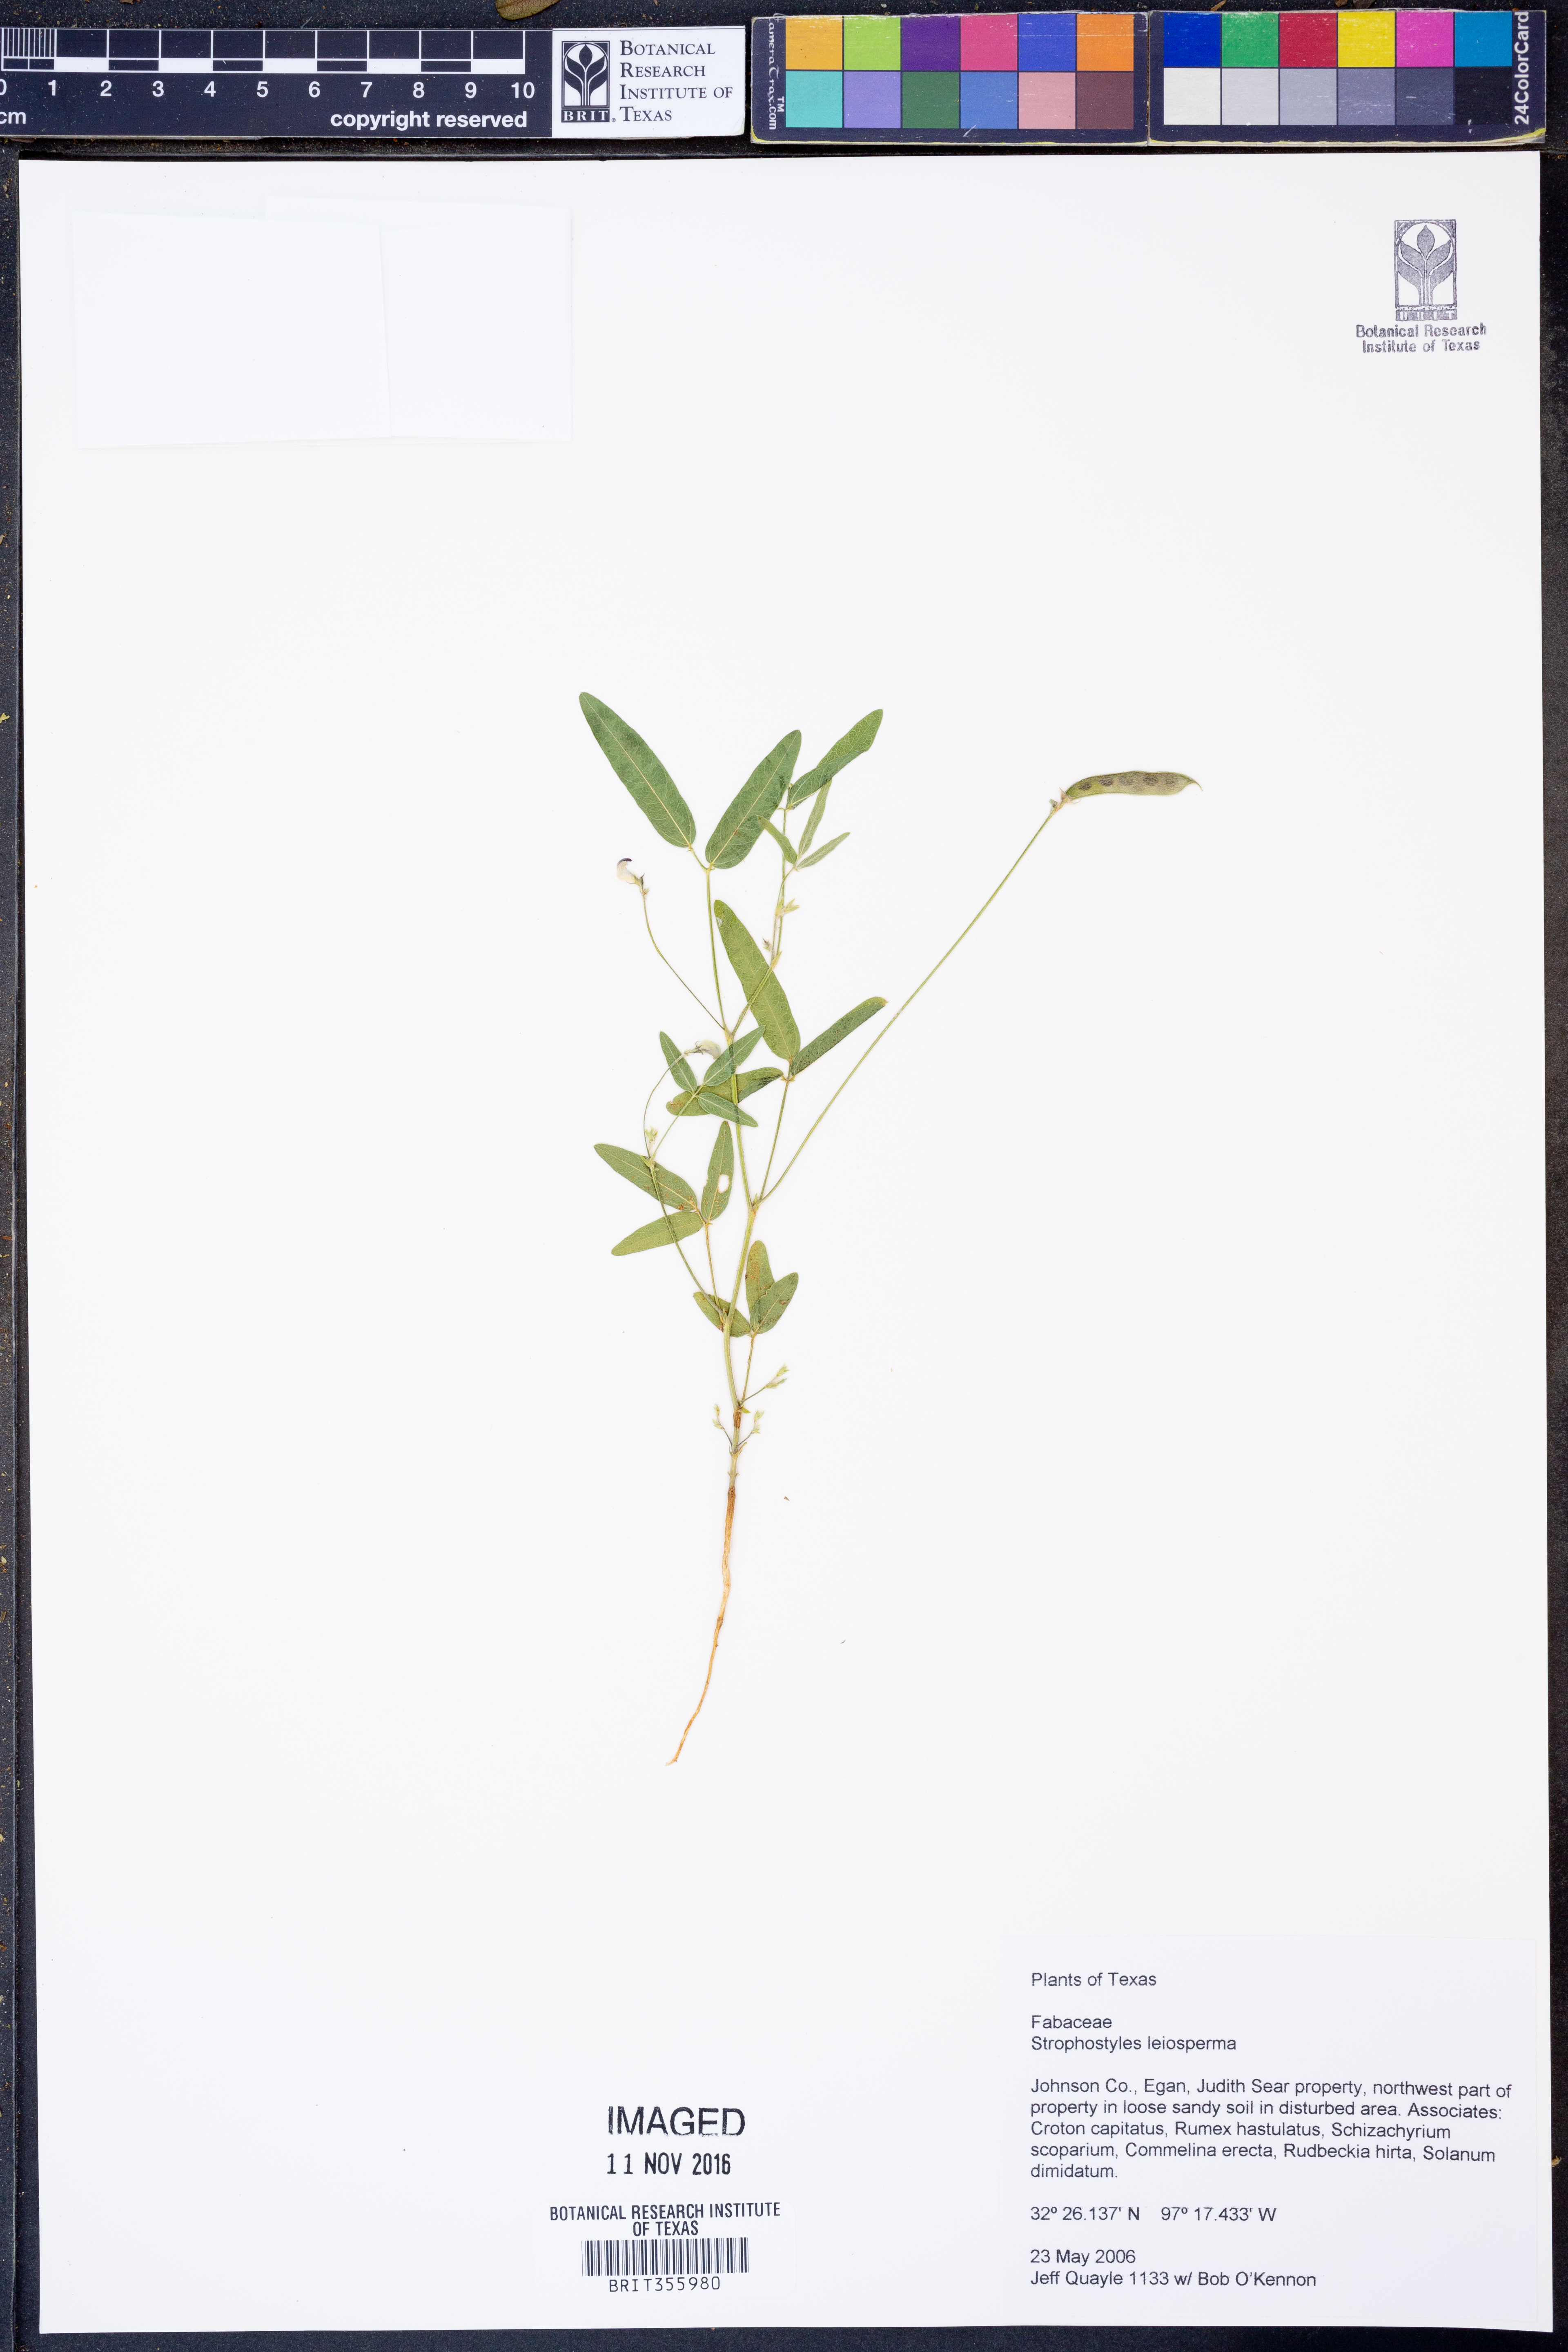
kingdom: Plantae
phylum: Tracheophyta
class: Magnoliopsida
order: Fabales
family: Fabaceae
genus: Strophostyles
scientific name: Strophostyles leiosperma
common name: Smooth-seed wild bean
